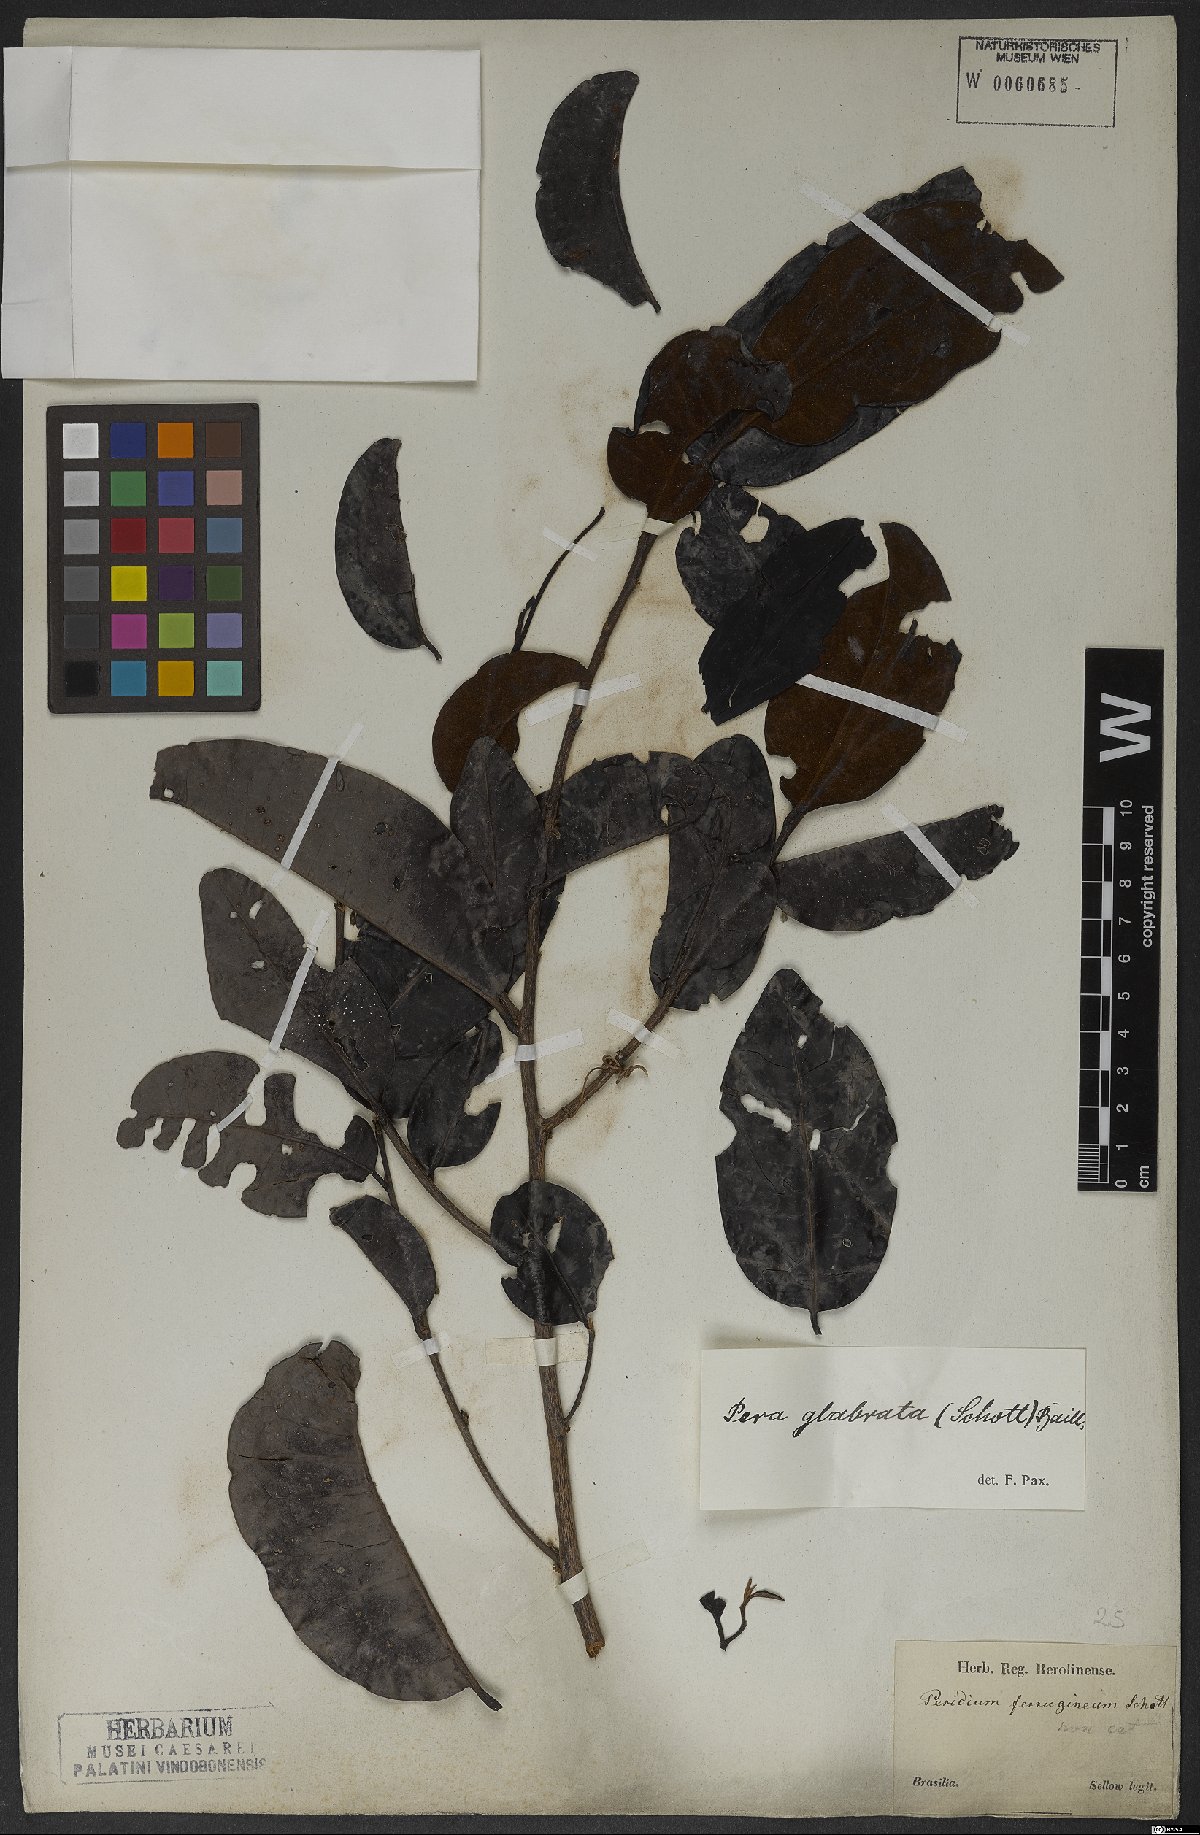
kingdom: Plantae
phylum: Tracheophyta
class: Magnoliopsida
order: Malpighiales
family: Peraceae
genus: Pera
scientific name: Pera glabrata
